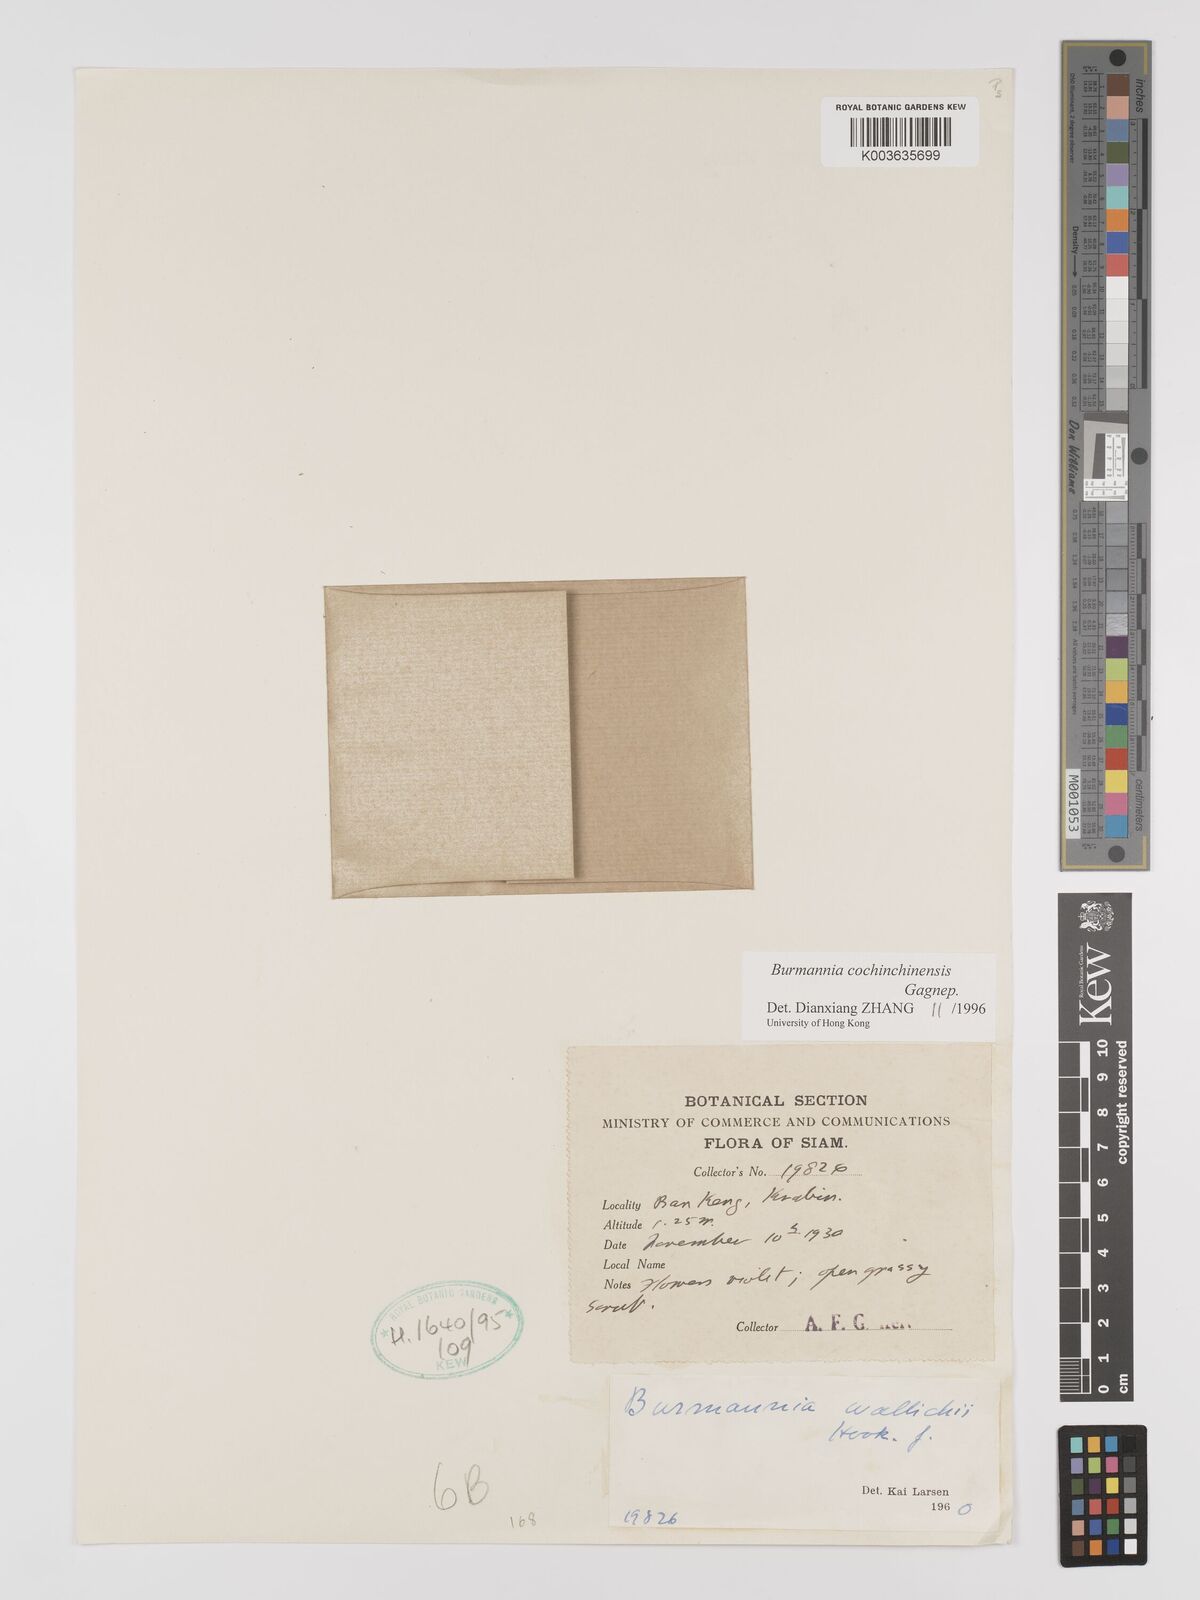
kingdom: Plantae
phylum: Tracheophyta
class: Liliopsida
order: Dioscoreales
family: Burmanniaceae
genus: Burmannia
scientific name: Burmannia cochinchinensis
